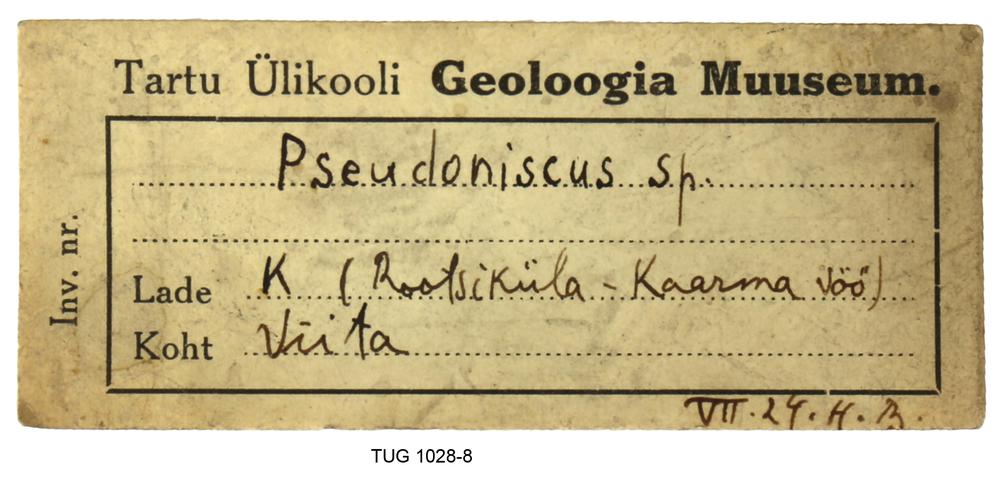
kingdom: Animalia
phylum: Arthropoda
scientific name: Arthropoda
